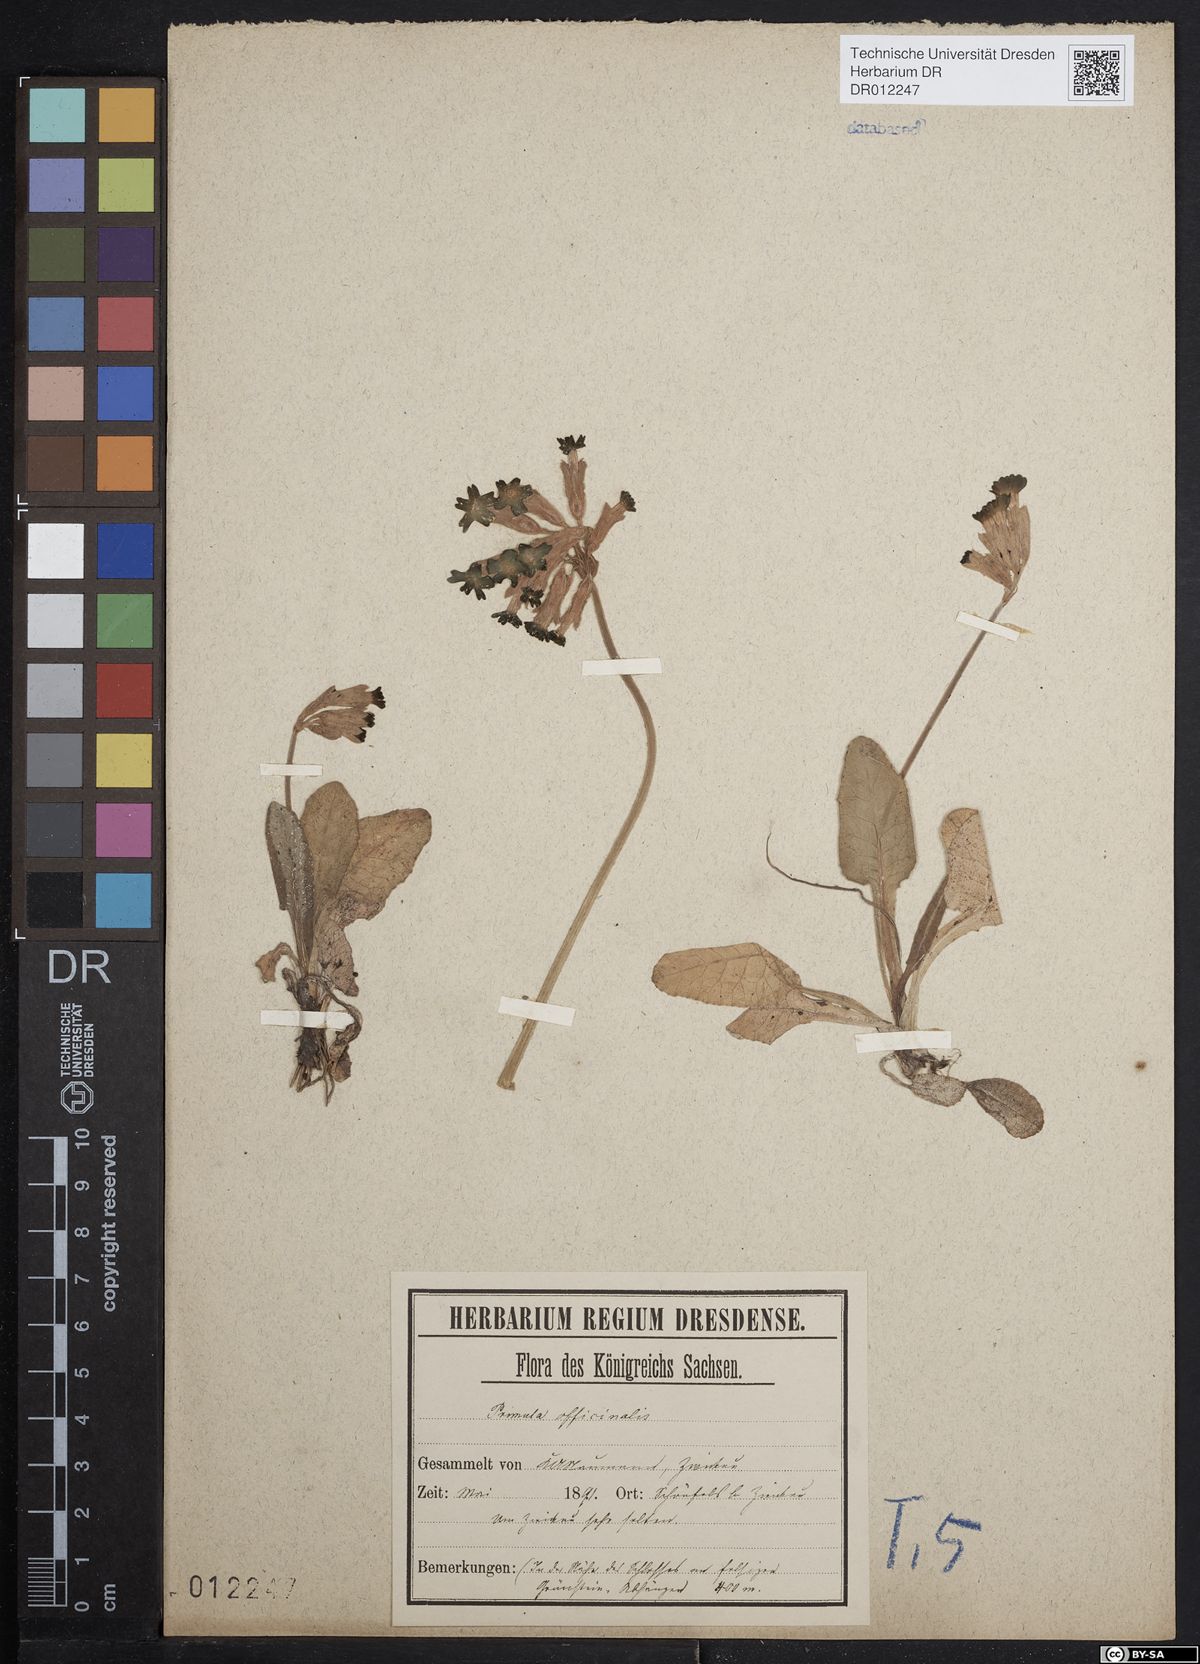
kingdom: Plantae
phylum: Tracheophyta
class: Magnoliopsida
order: Ericales
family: Primulaceae
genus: Primula
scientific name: Primula veris
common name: Cowslip
